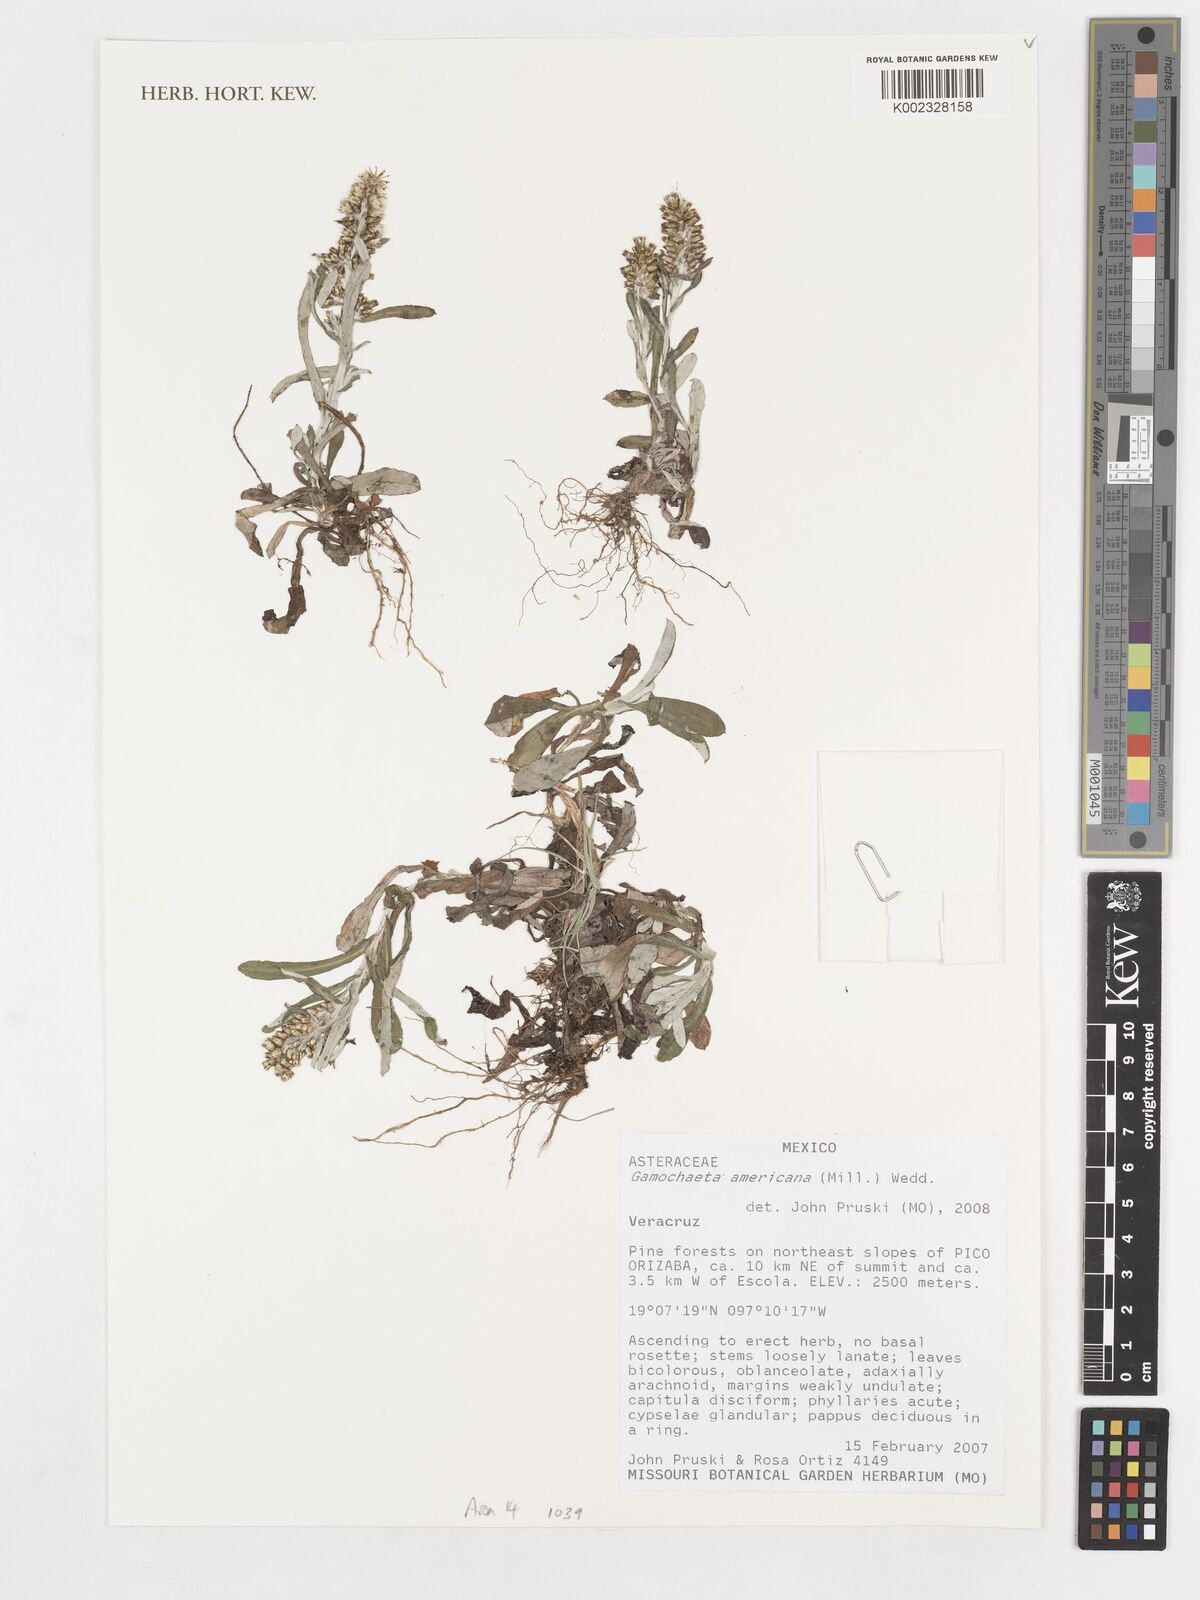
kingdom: Plantae
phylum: Tracheophyta
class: Magnoliopsida
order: Asterales
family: Asteraceae
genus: Gamochaeta
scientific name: Gamochaeta americana
